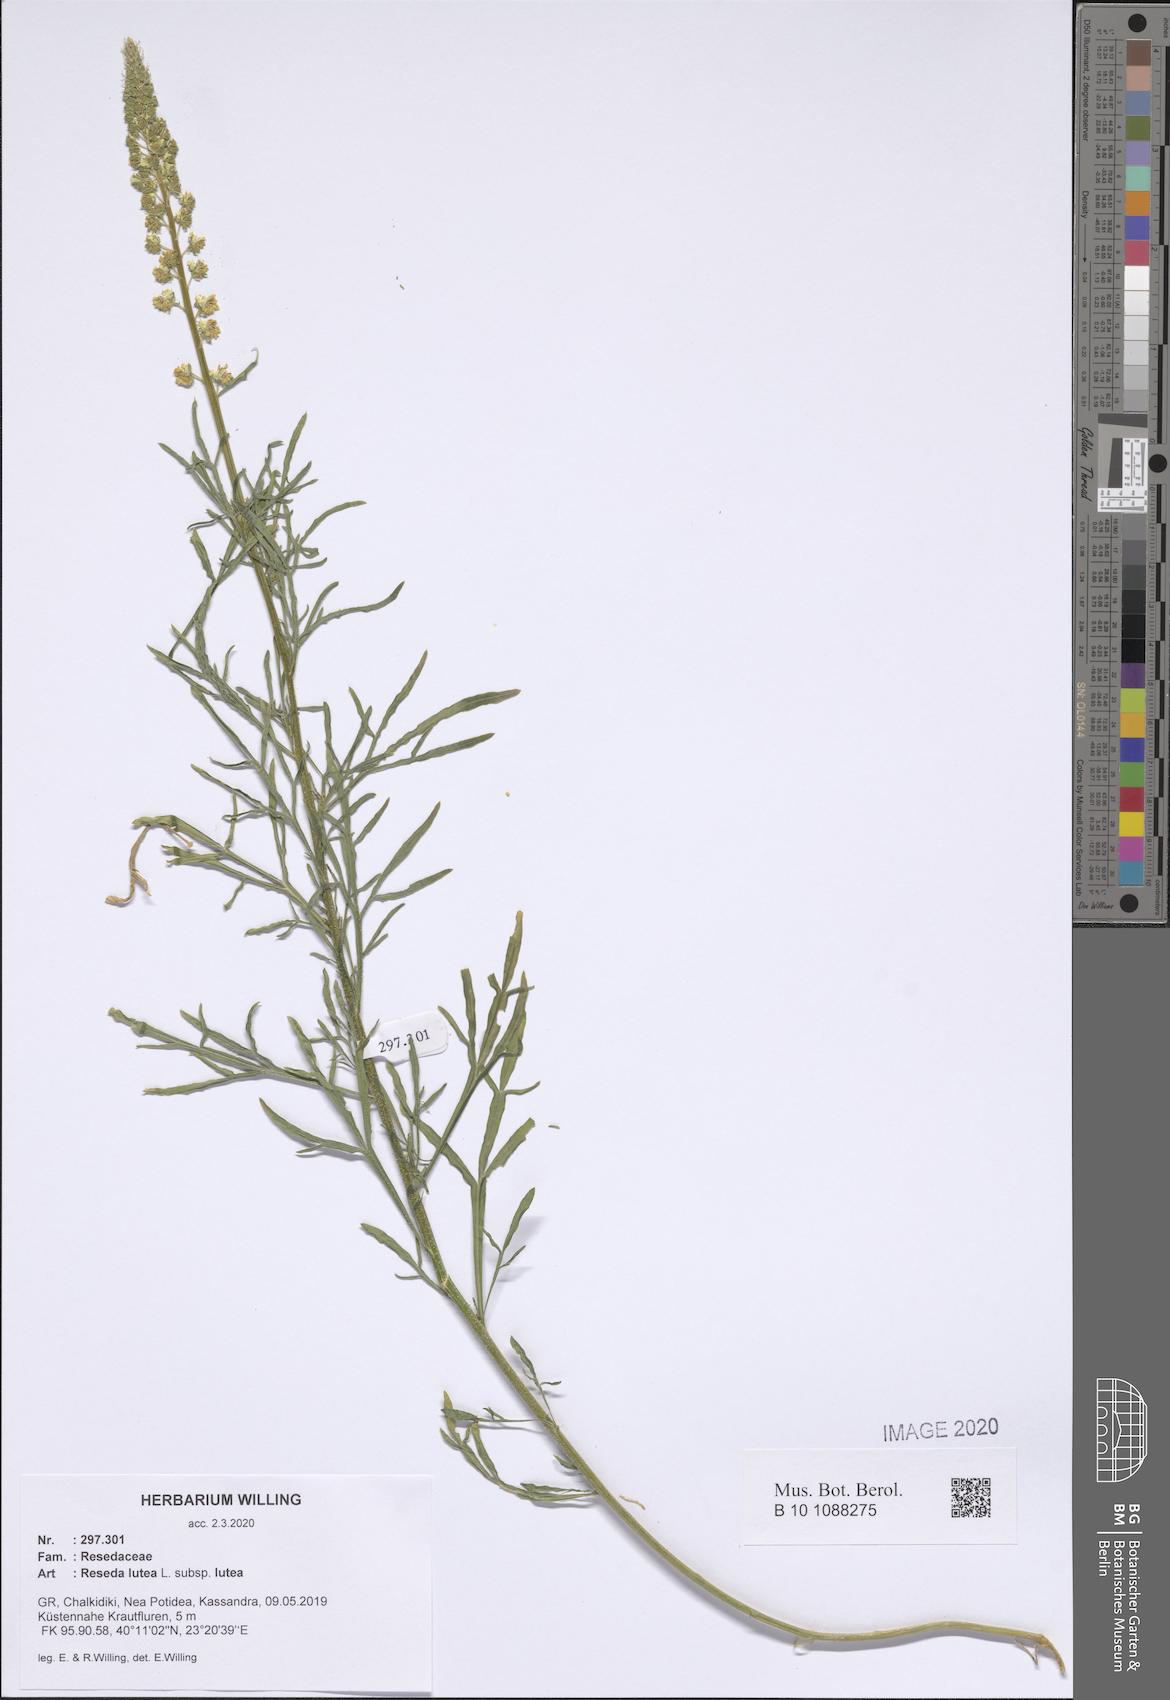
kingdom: Plantae
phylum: Tracheophyta
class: Magnoliopsida
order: Brassicales
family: Resedaceae
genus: Reseda
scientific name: Reseda lutea
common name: Wild mignonette
